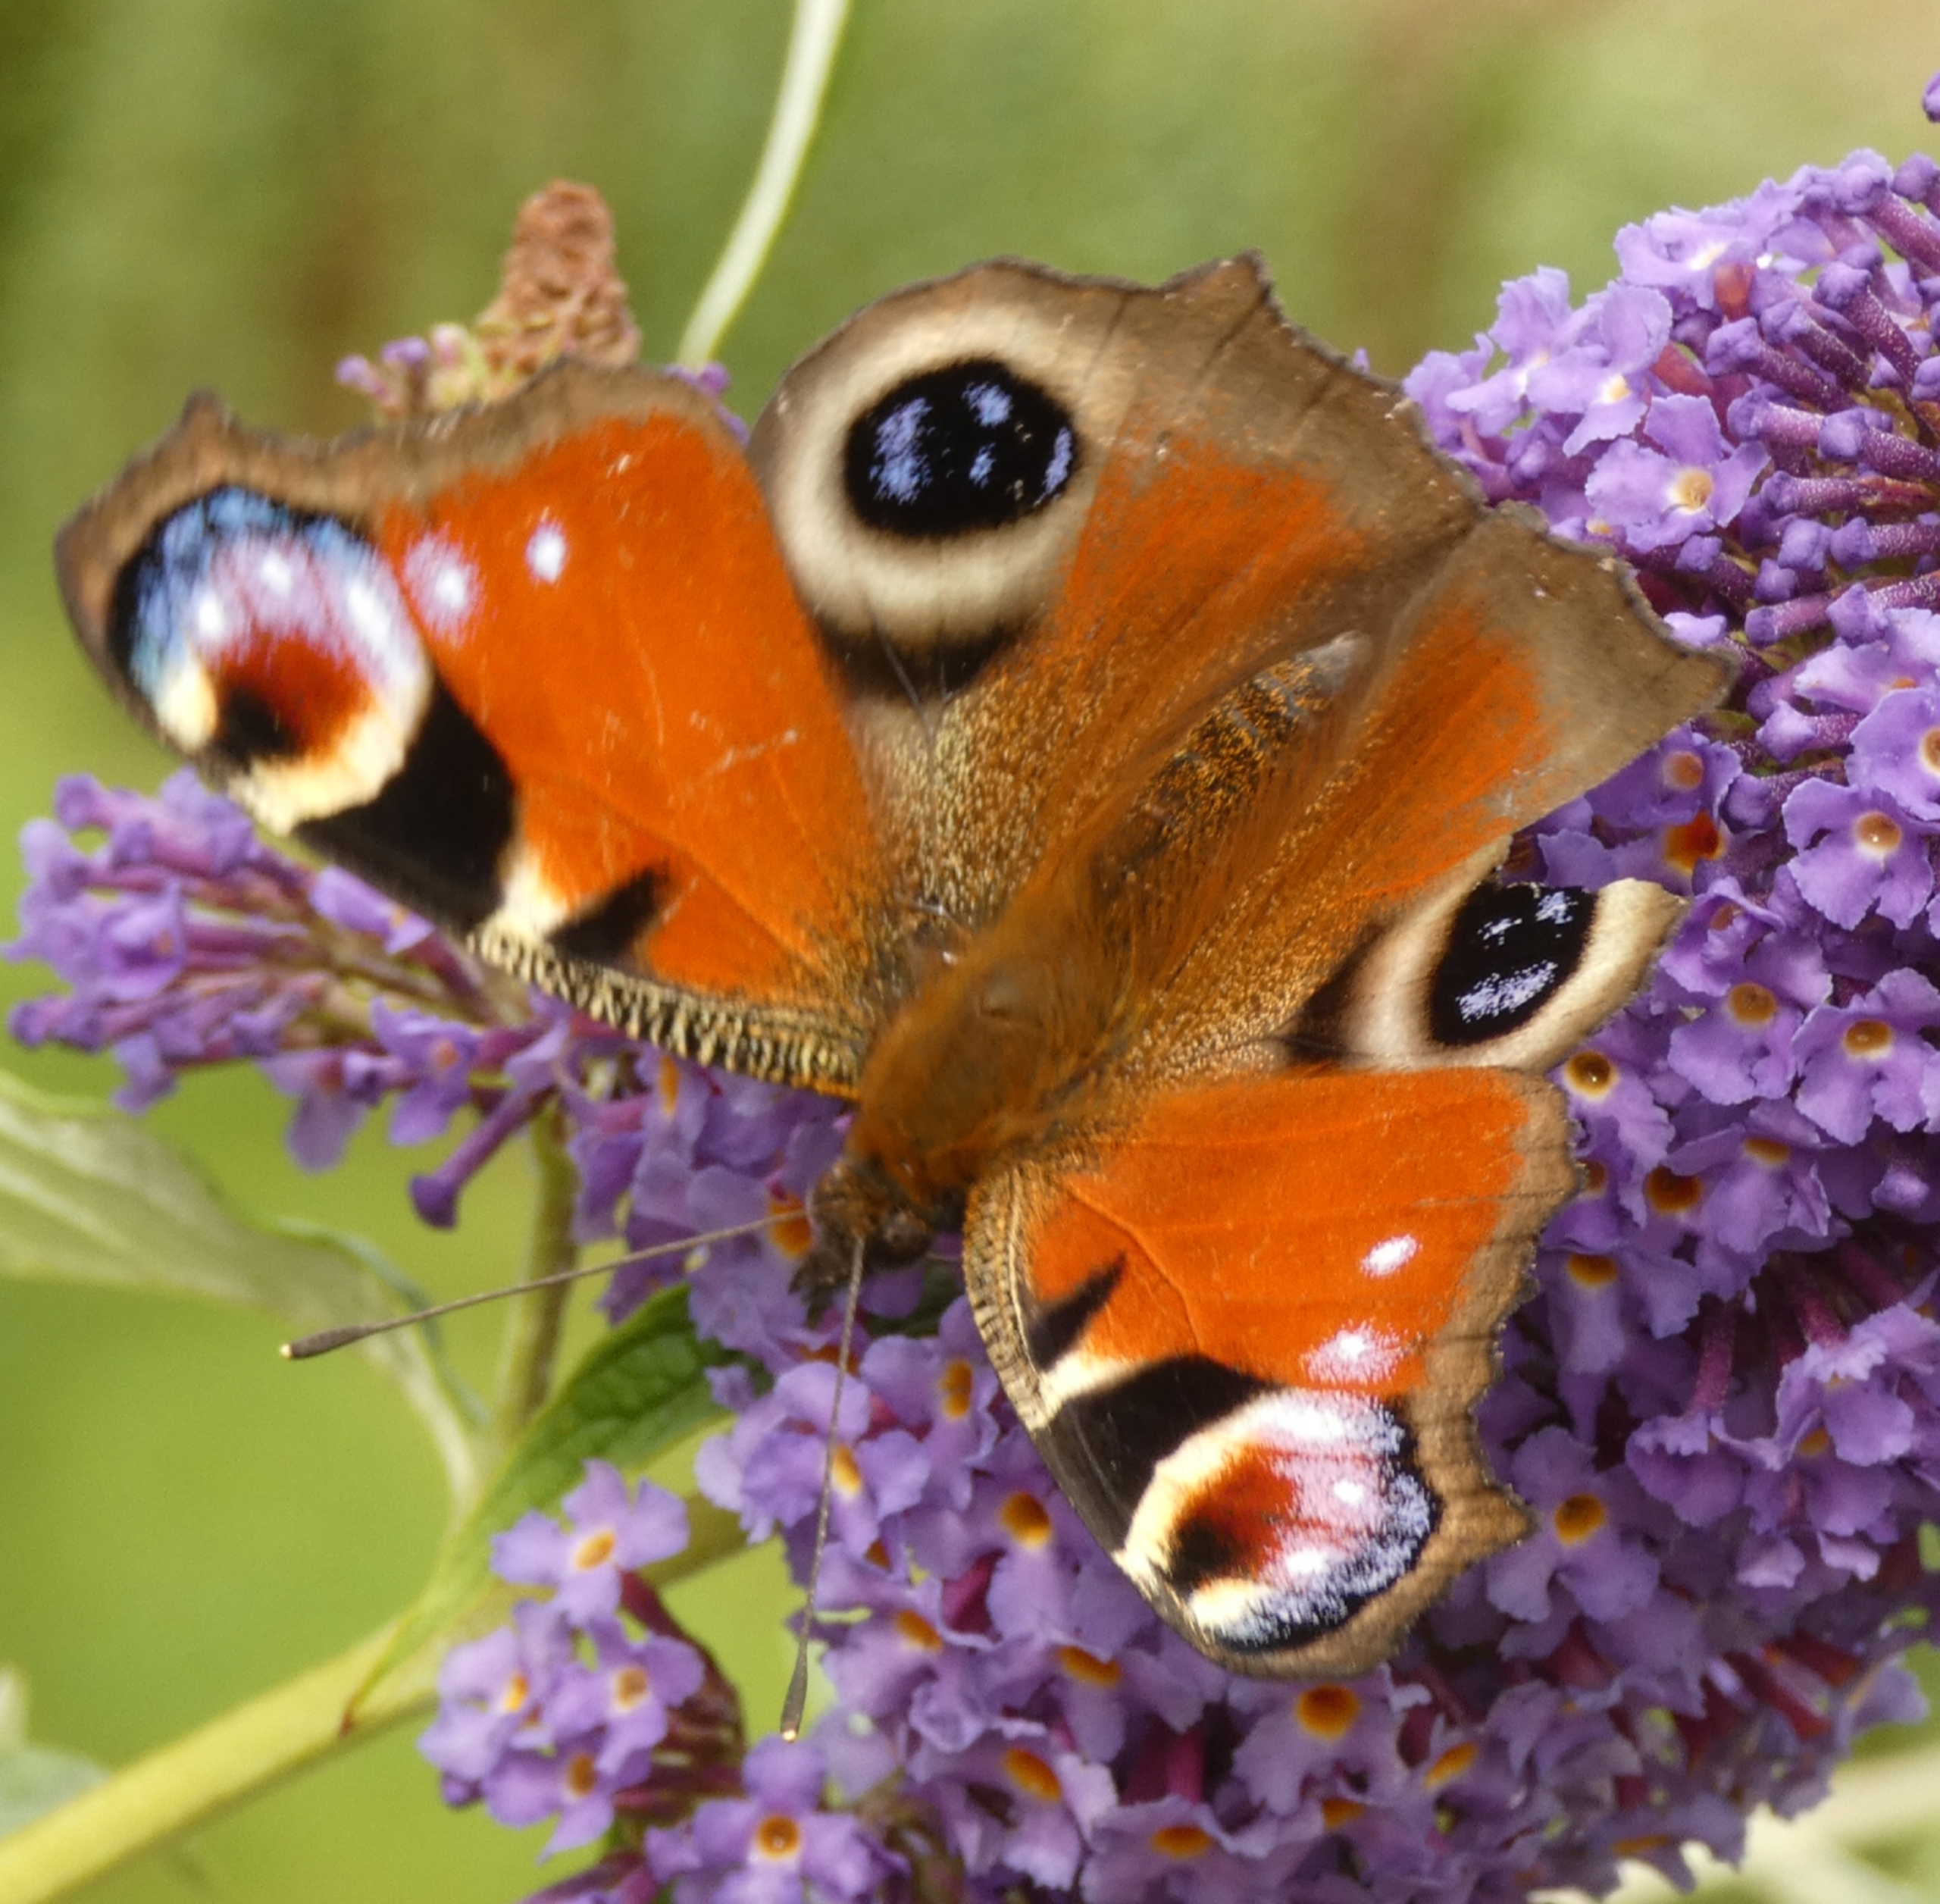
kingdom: Animalia
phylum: Arthropoda
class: Insecta
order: Lepidoptera
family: Nymphalidae
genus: Aglais
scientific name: Aglais io
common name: Dagpåfugleøje
